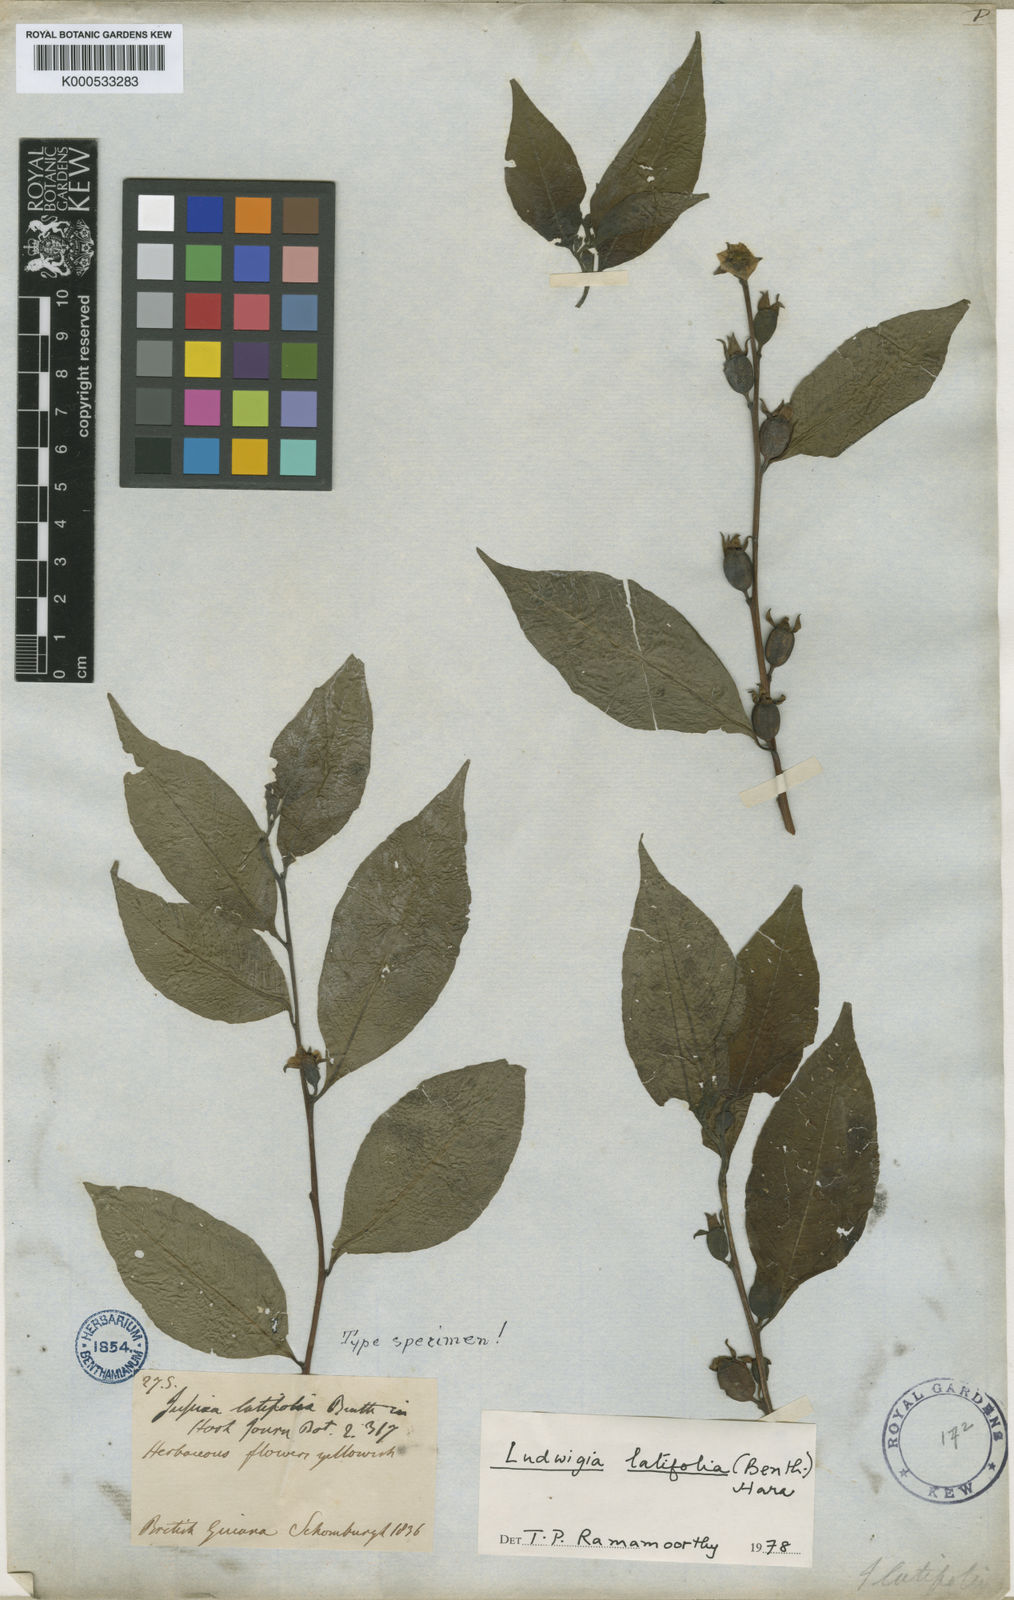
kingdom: Plantae
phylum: Tracheophyta
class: Magnoliopsida
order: Myrtales
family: Onagraceae
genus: Ludwigia
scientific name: Ludwigia latifolia
